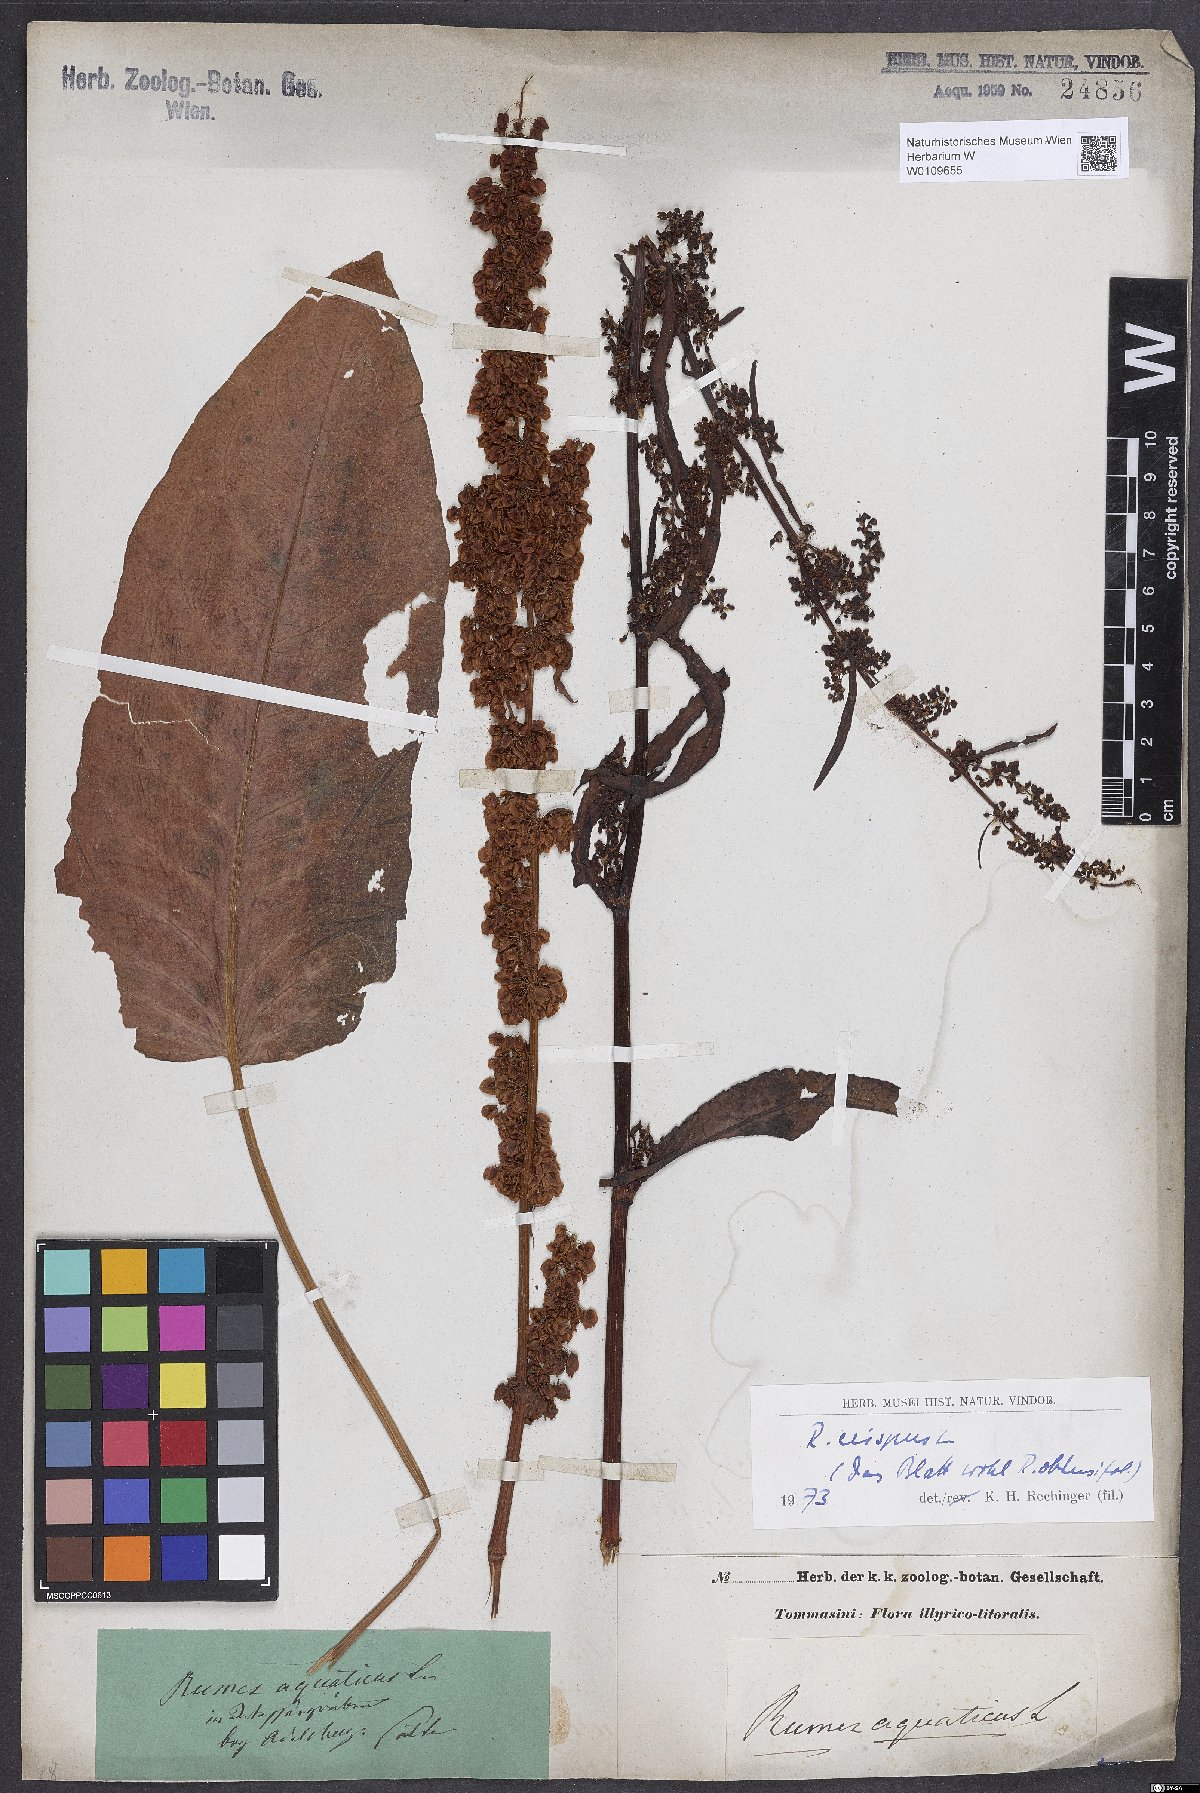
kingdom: Plantae
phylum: Tracheophyta
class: Magnoliopsida
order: Caryophyllales
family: Polygonaceae
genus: Rumex
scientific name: Rumex crispus
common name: Curled dock
